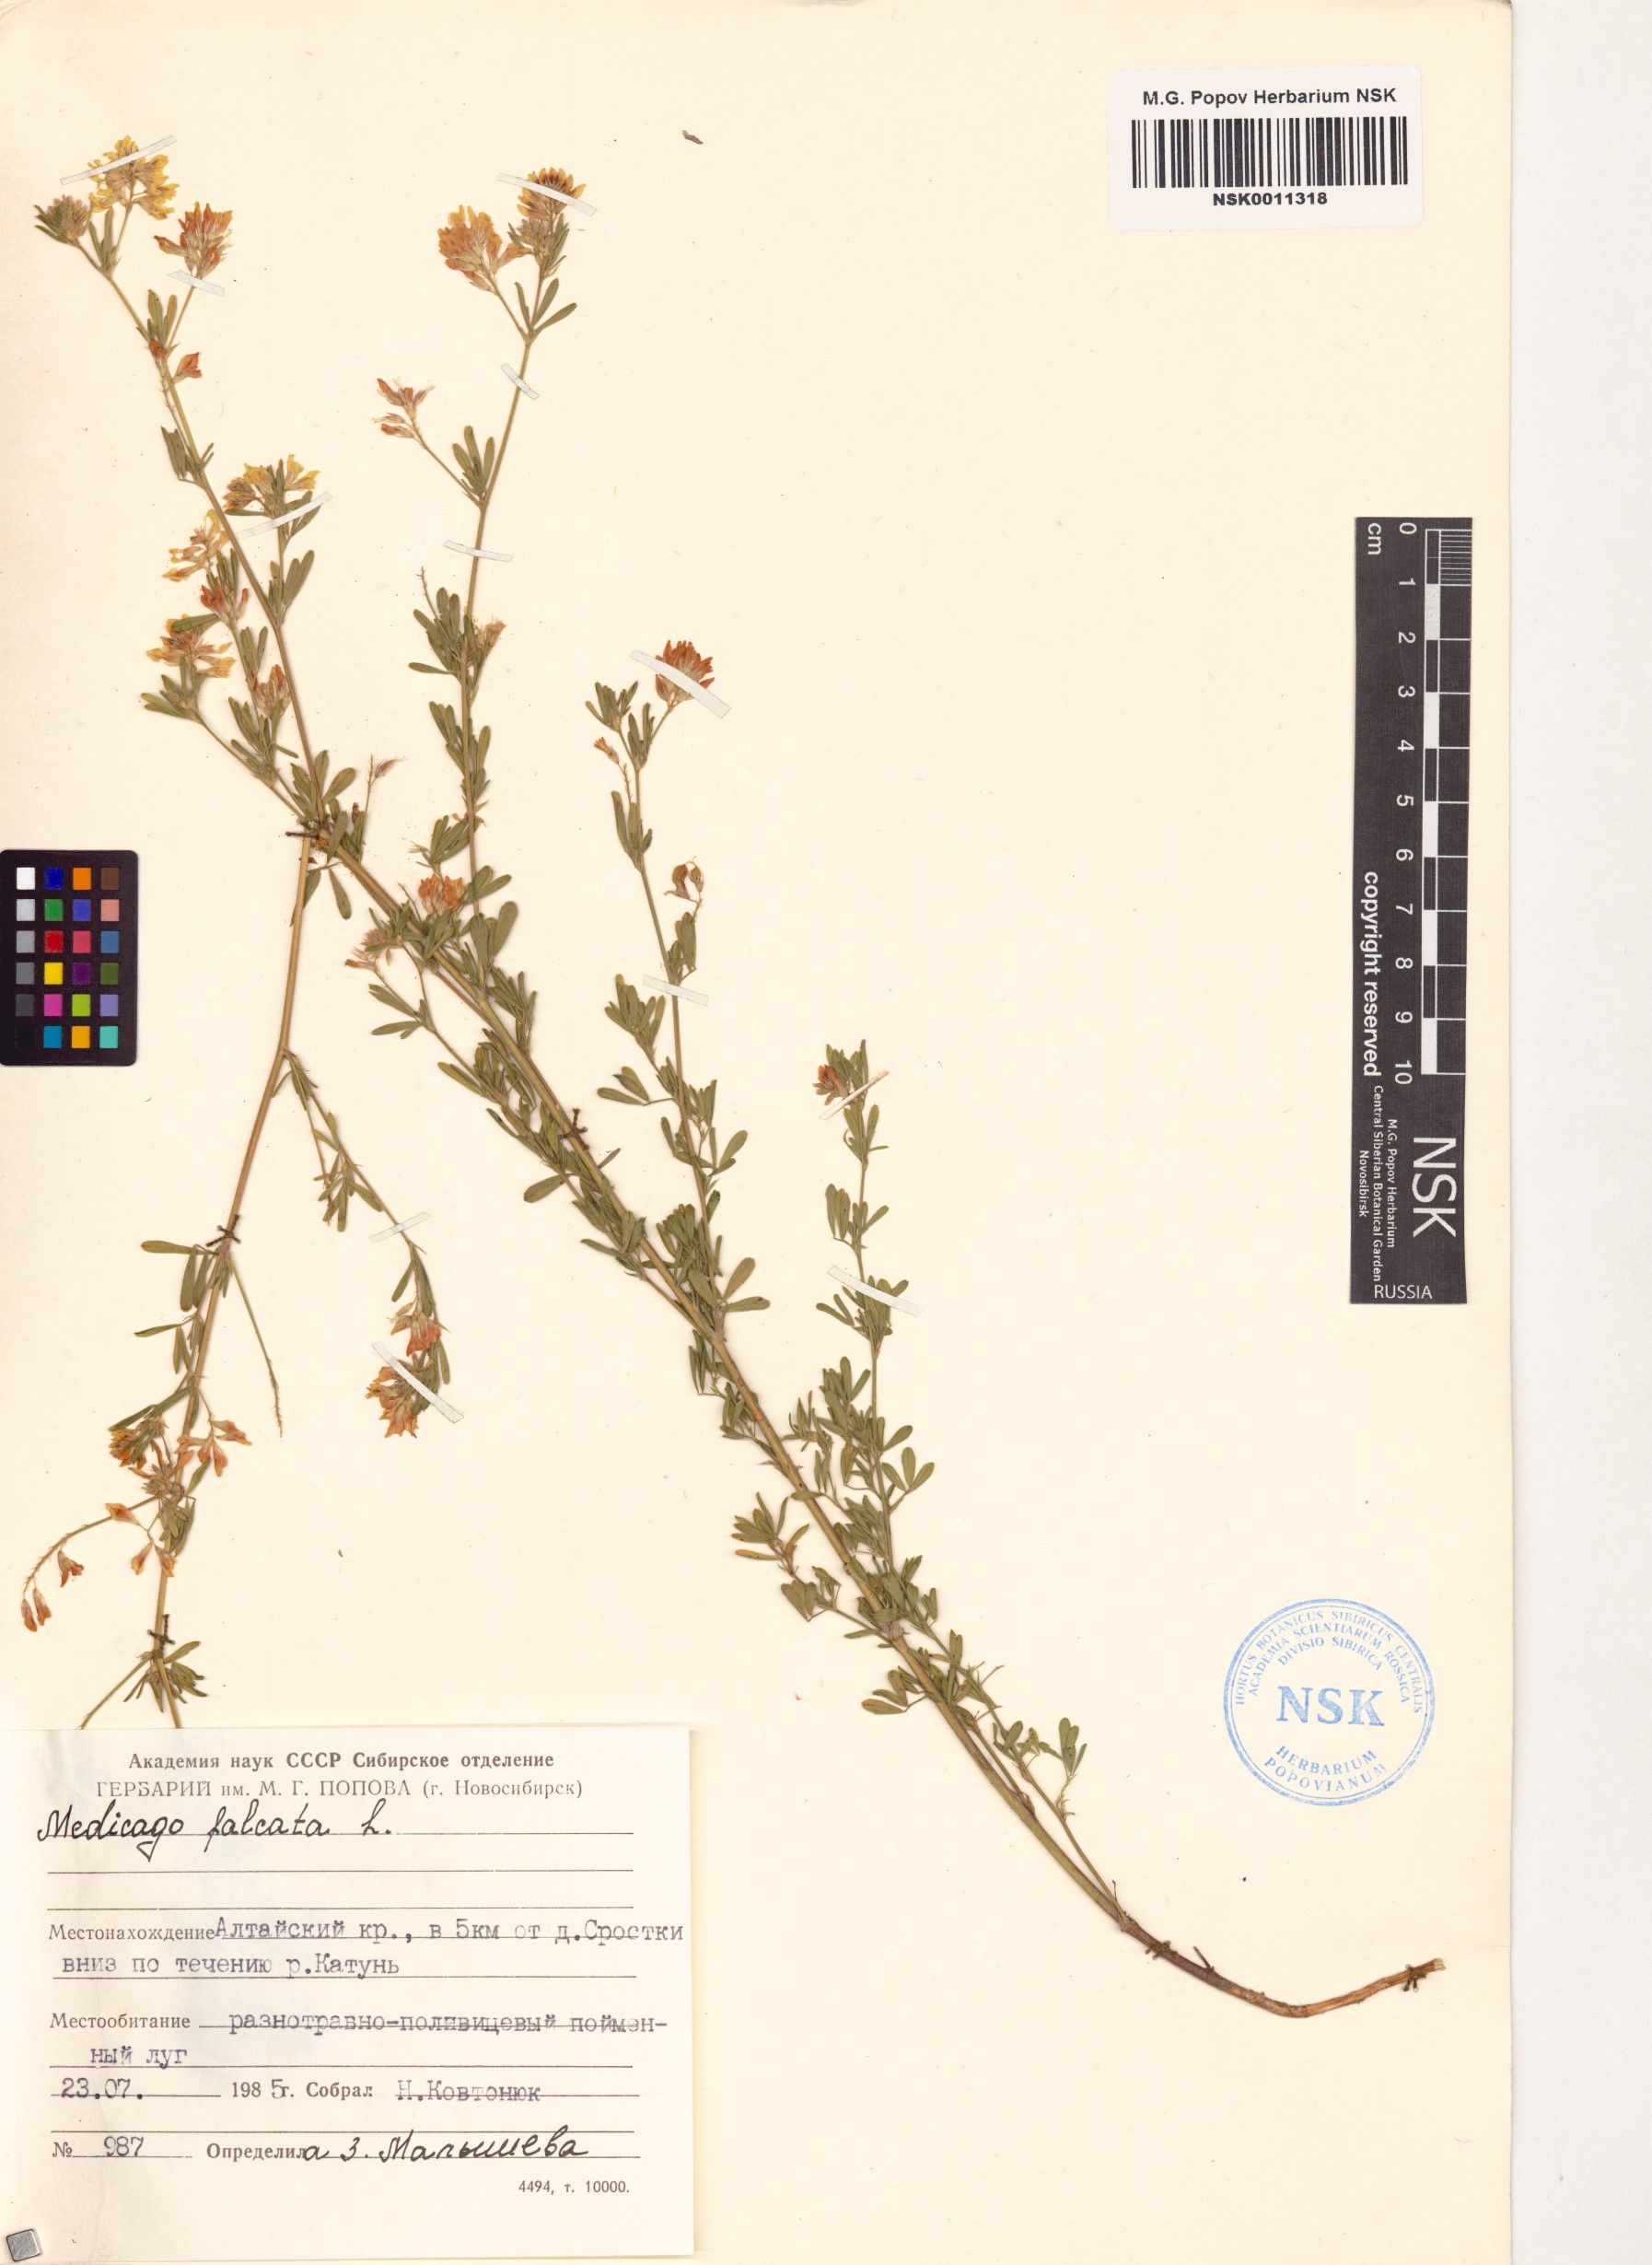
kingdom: Plantae
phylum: Tracheophyta
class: Magnoliopsida
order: Fabales
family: Fabaceae
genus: Medicago
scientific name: Medicago falcata
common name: Sickle medick
